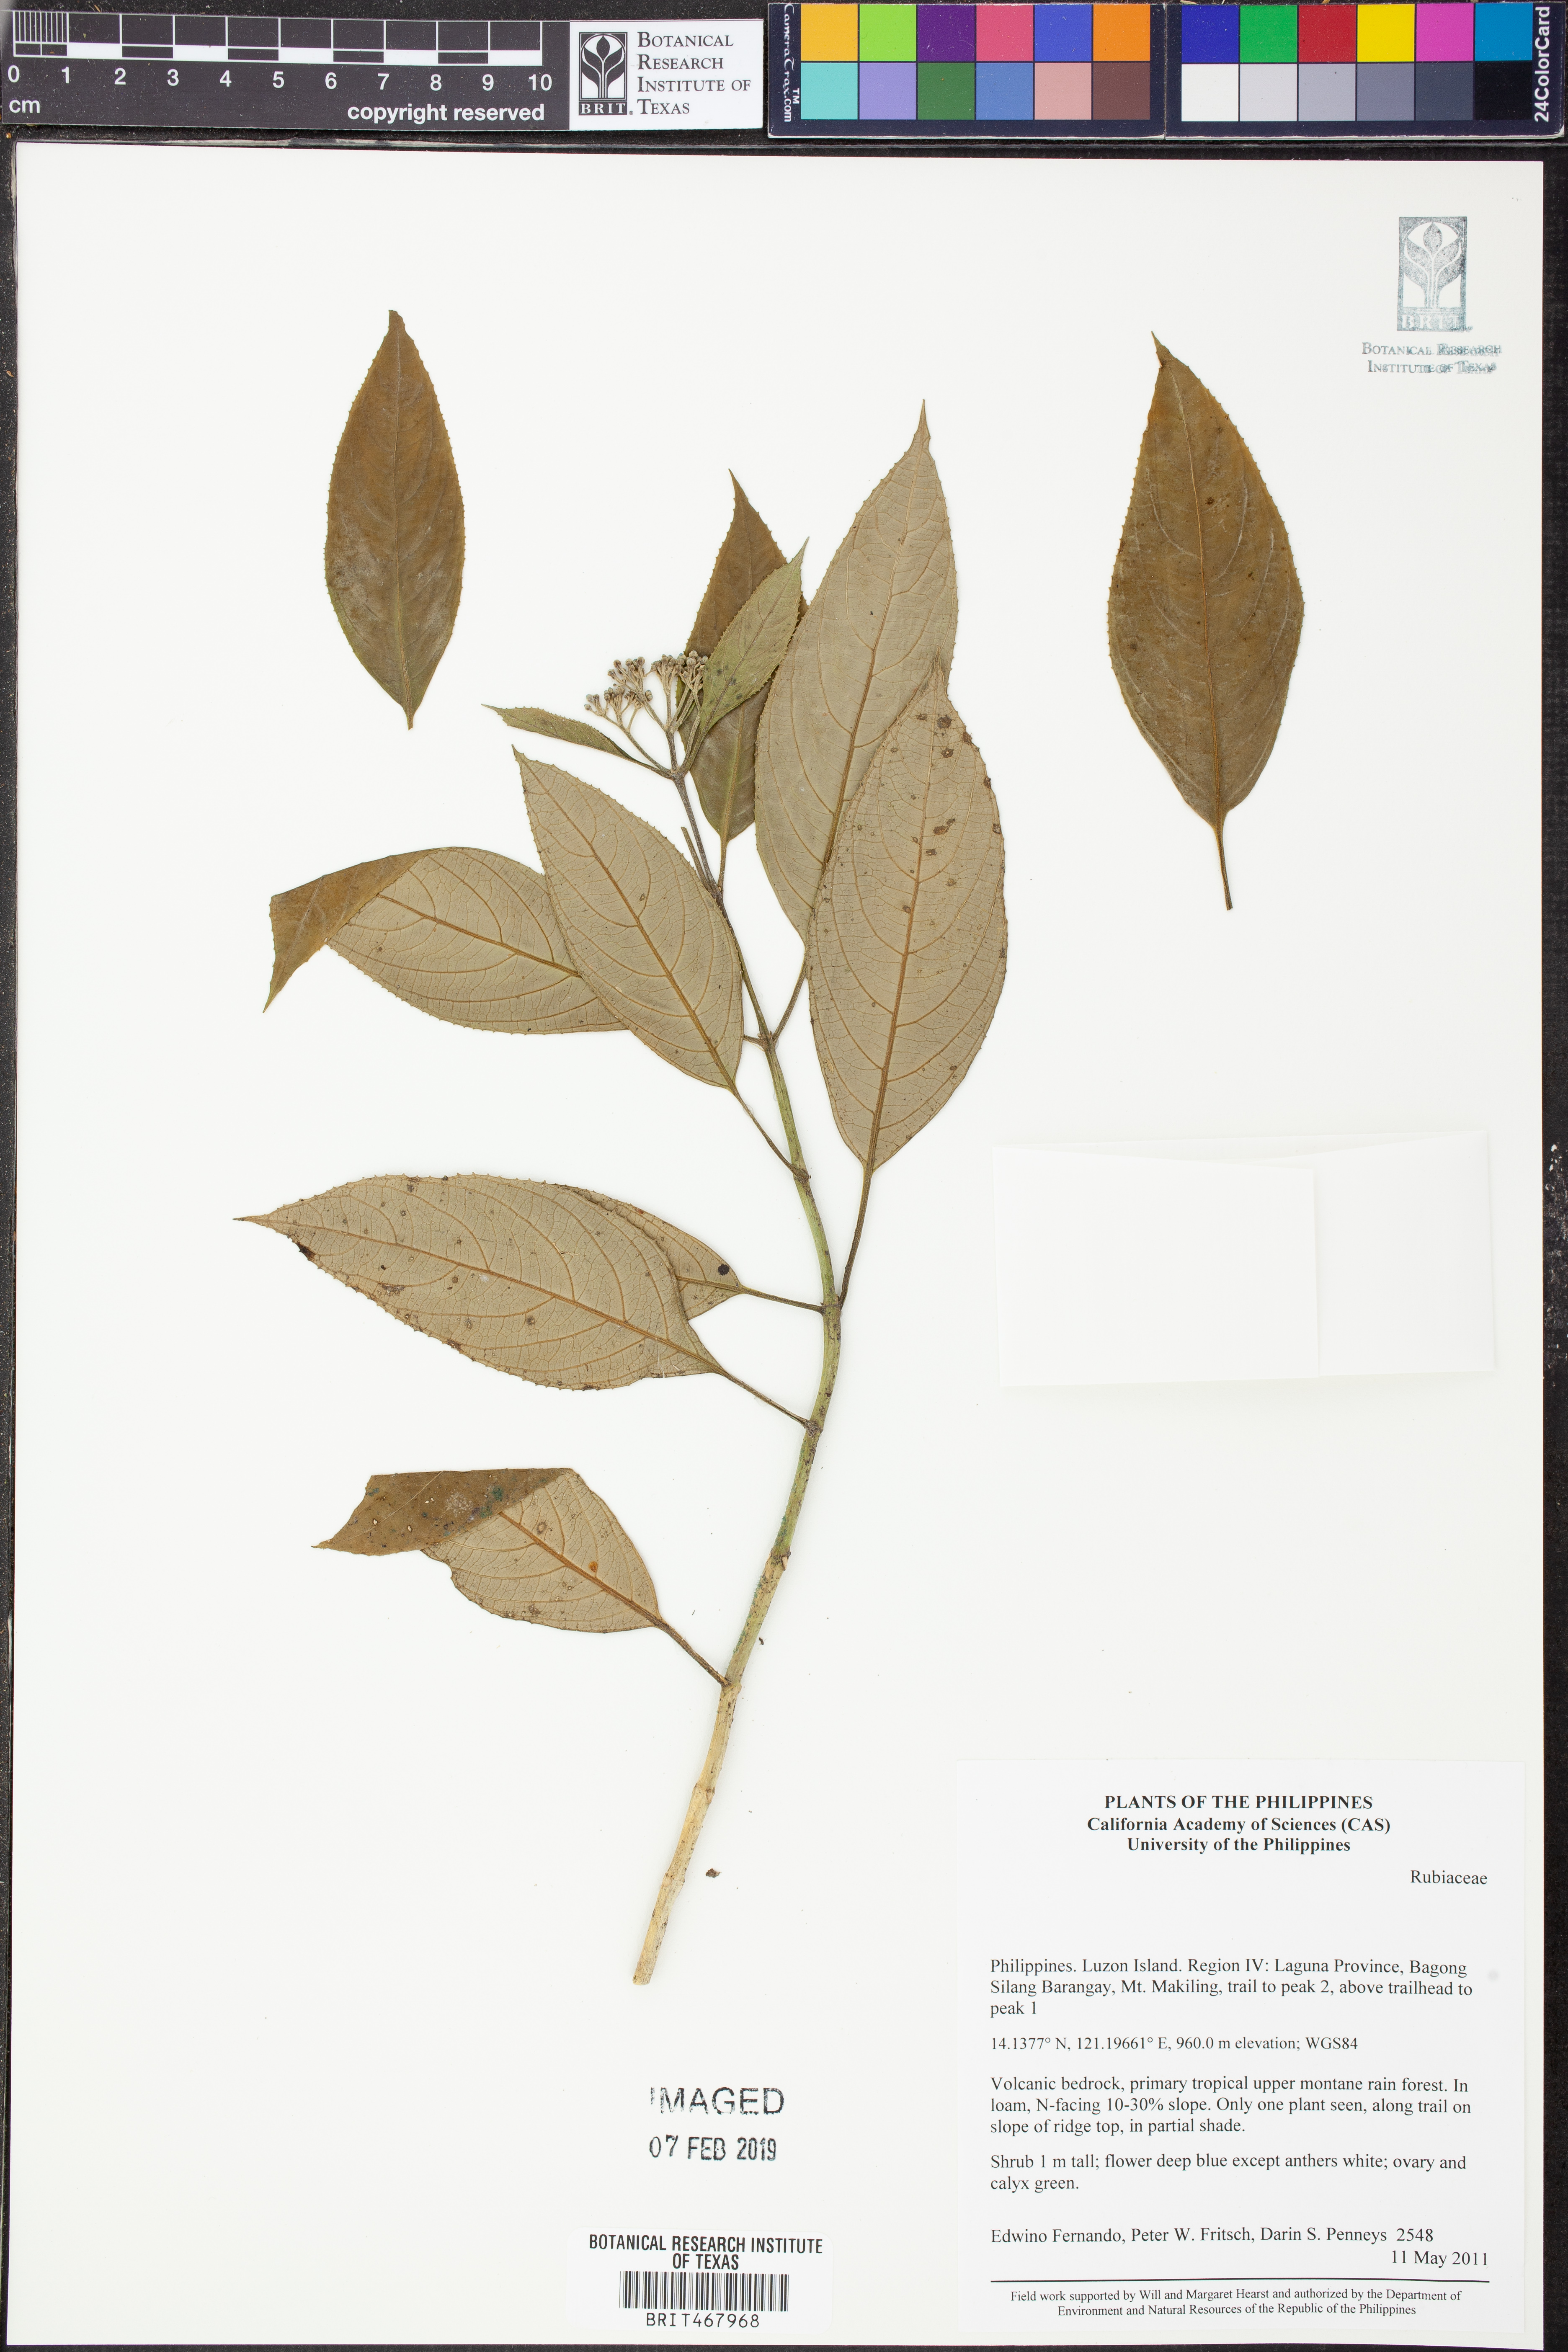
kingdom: Plantae
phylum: Tracheophyta
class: Magnoliopsida
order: Gentianales
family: Rubiaceae
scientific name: Rubiaceae
